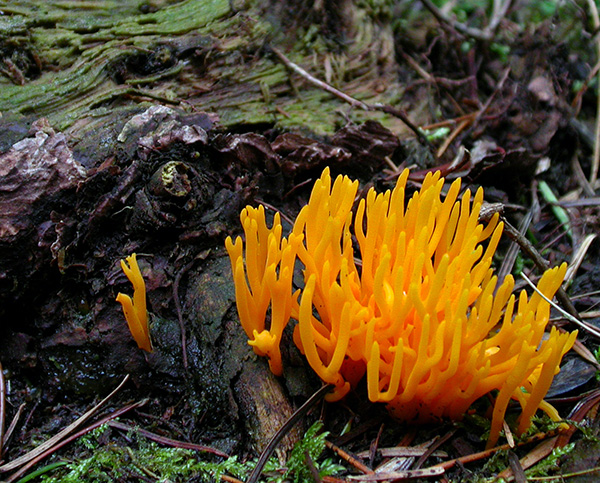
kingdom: Fungi
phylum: Basidiomycota
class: Dacrymycetes
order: Dacrymycetales
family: Dacrymycetaceae
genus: Calocera
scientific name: Calocera viscosa
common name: almindelig guldgaffel
